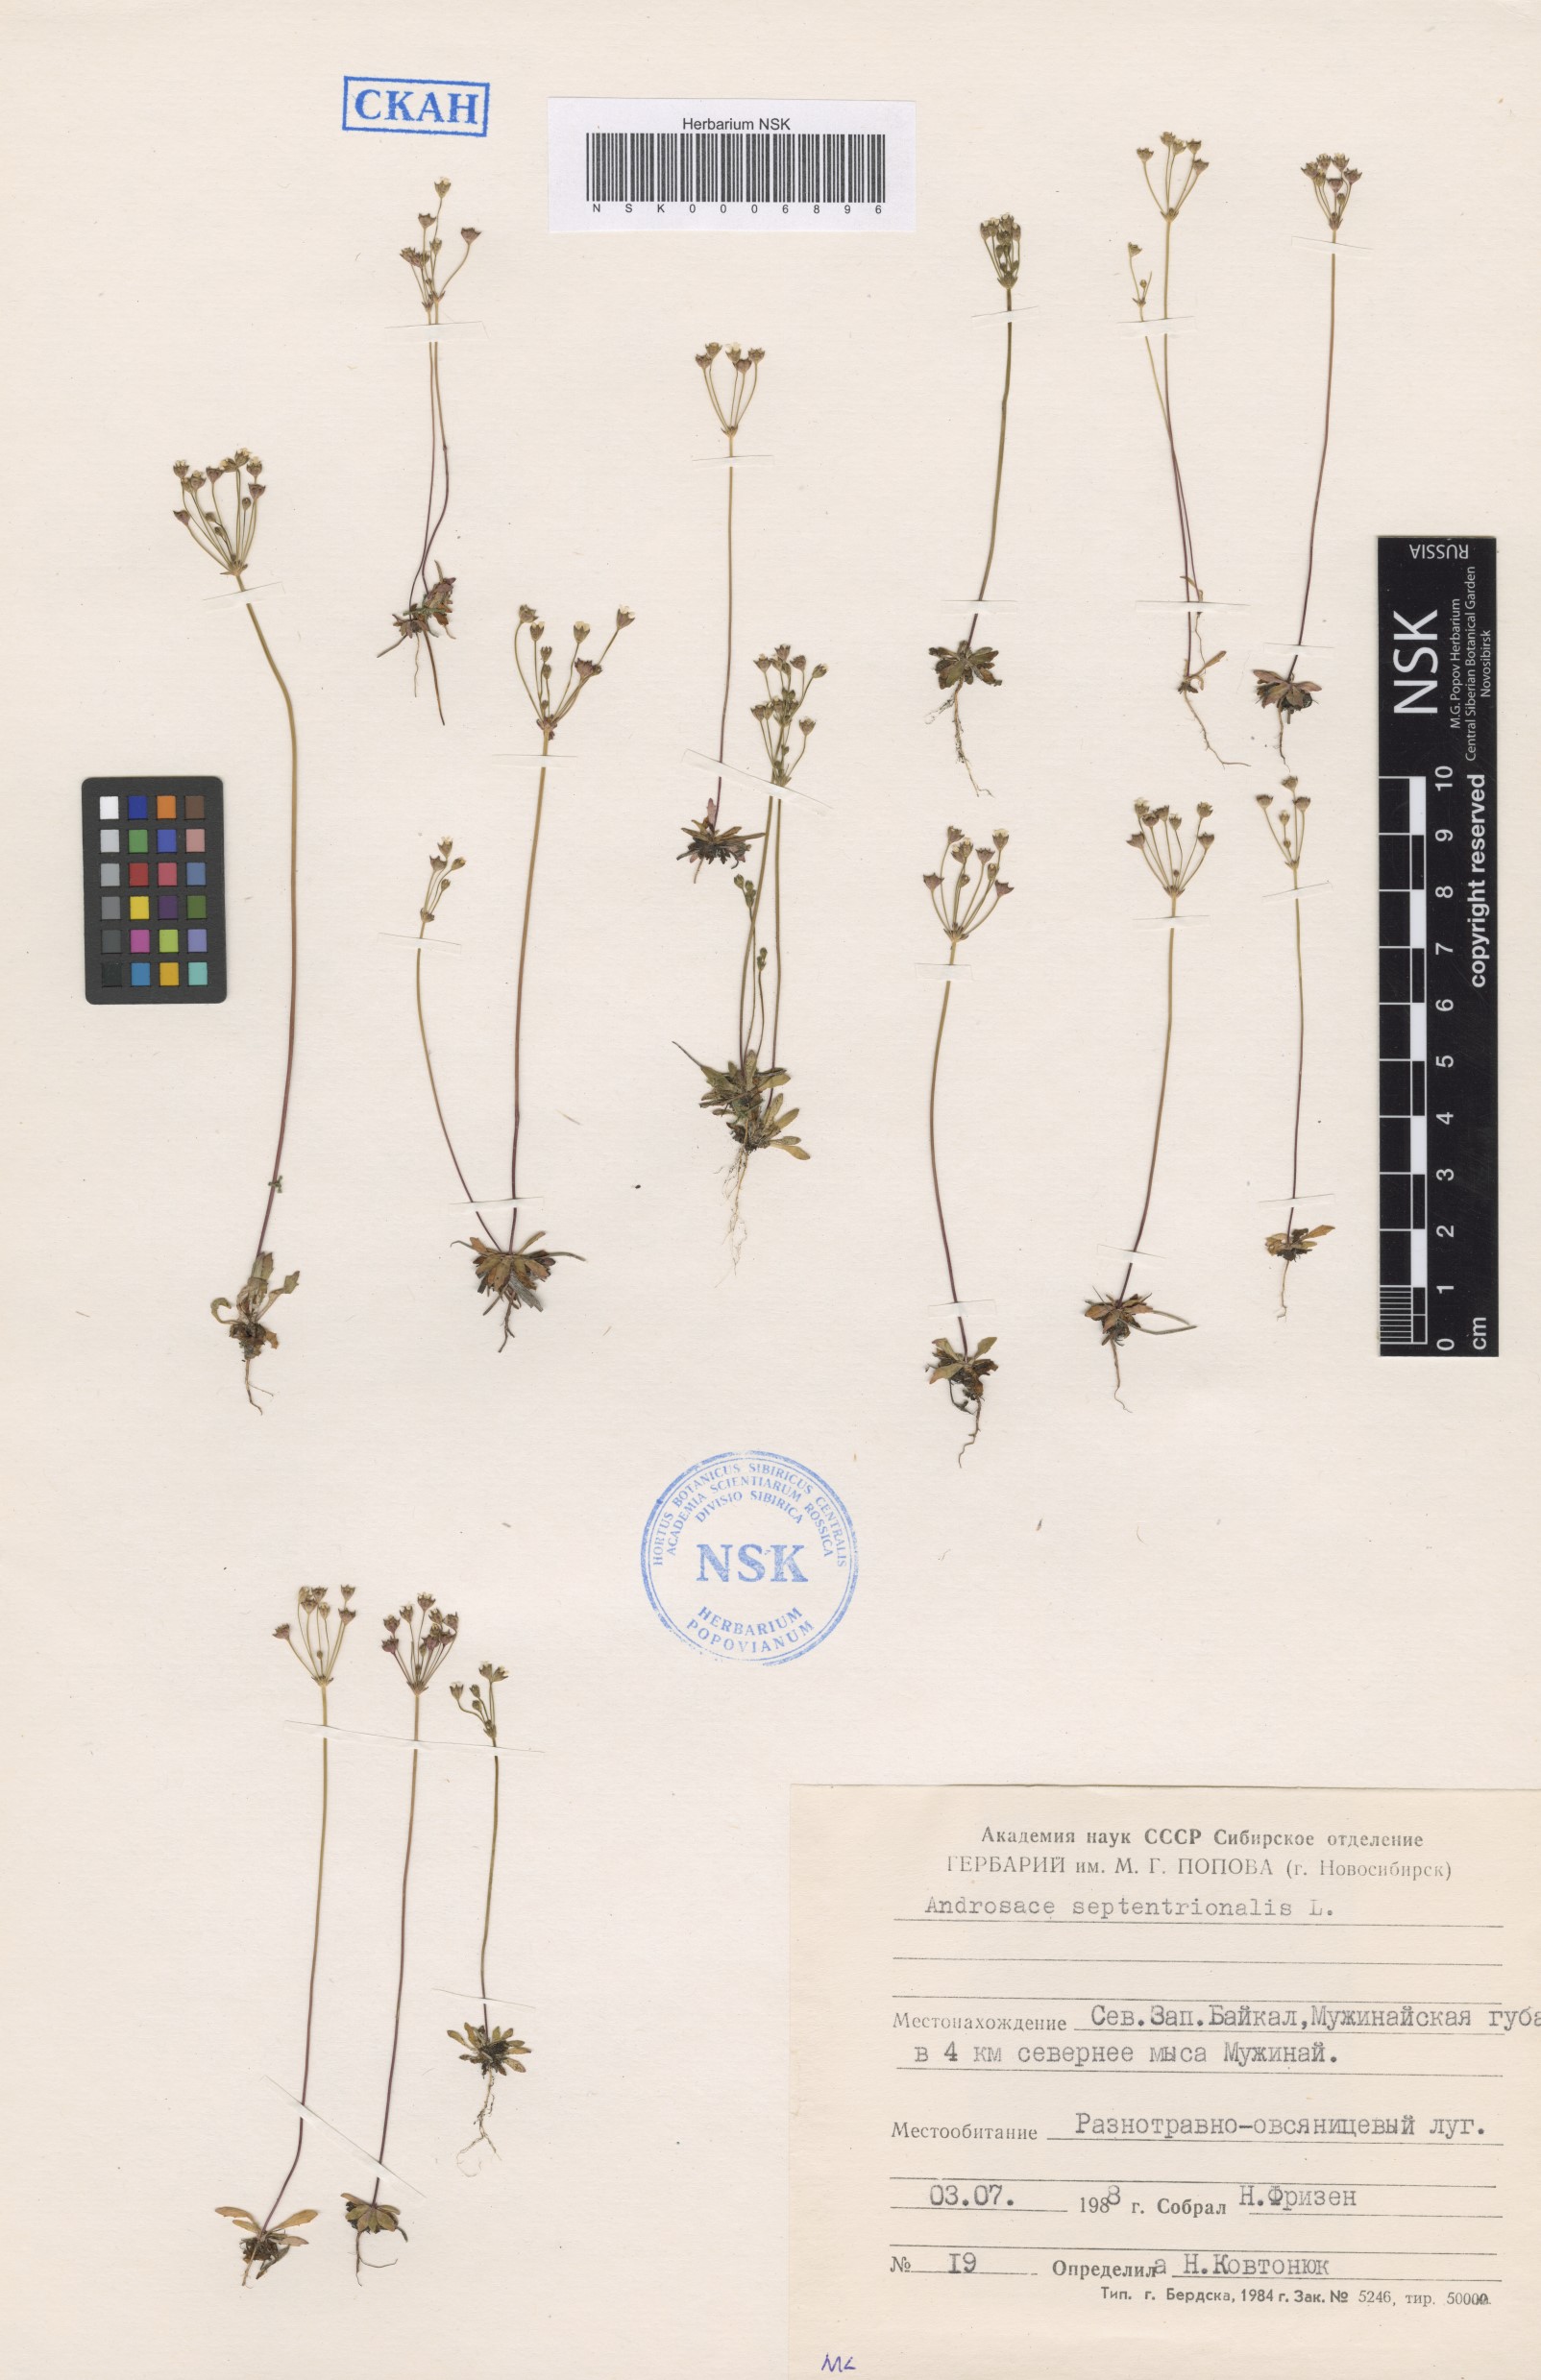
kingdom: Plantae
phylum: Tracheophyta
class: Magnoliopsida
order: Ericales
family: Primulaceae
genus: Androsace
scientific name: Androsace septentrionalis
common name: Hairy northern fairy-candelabra
